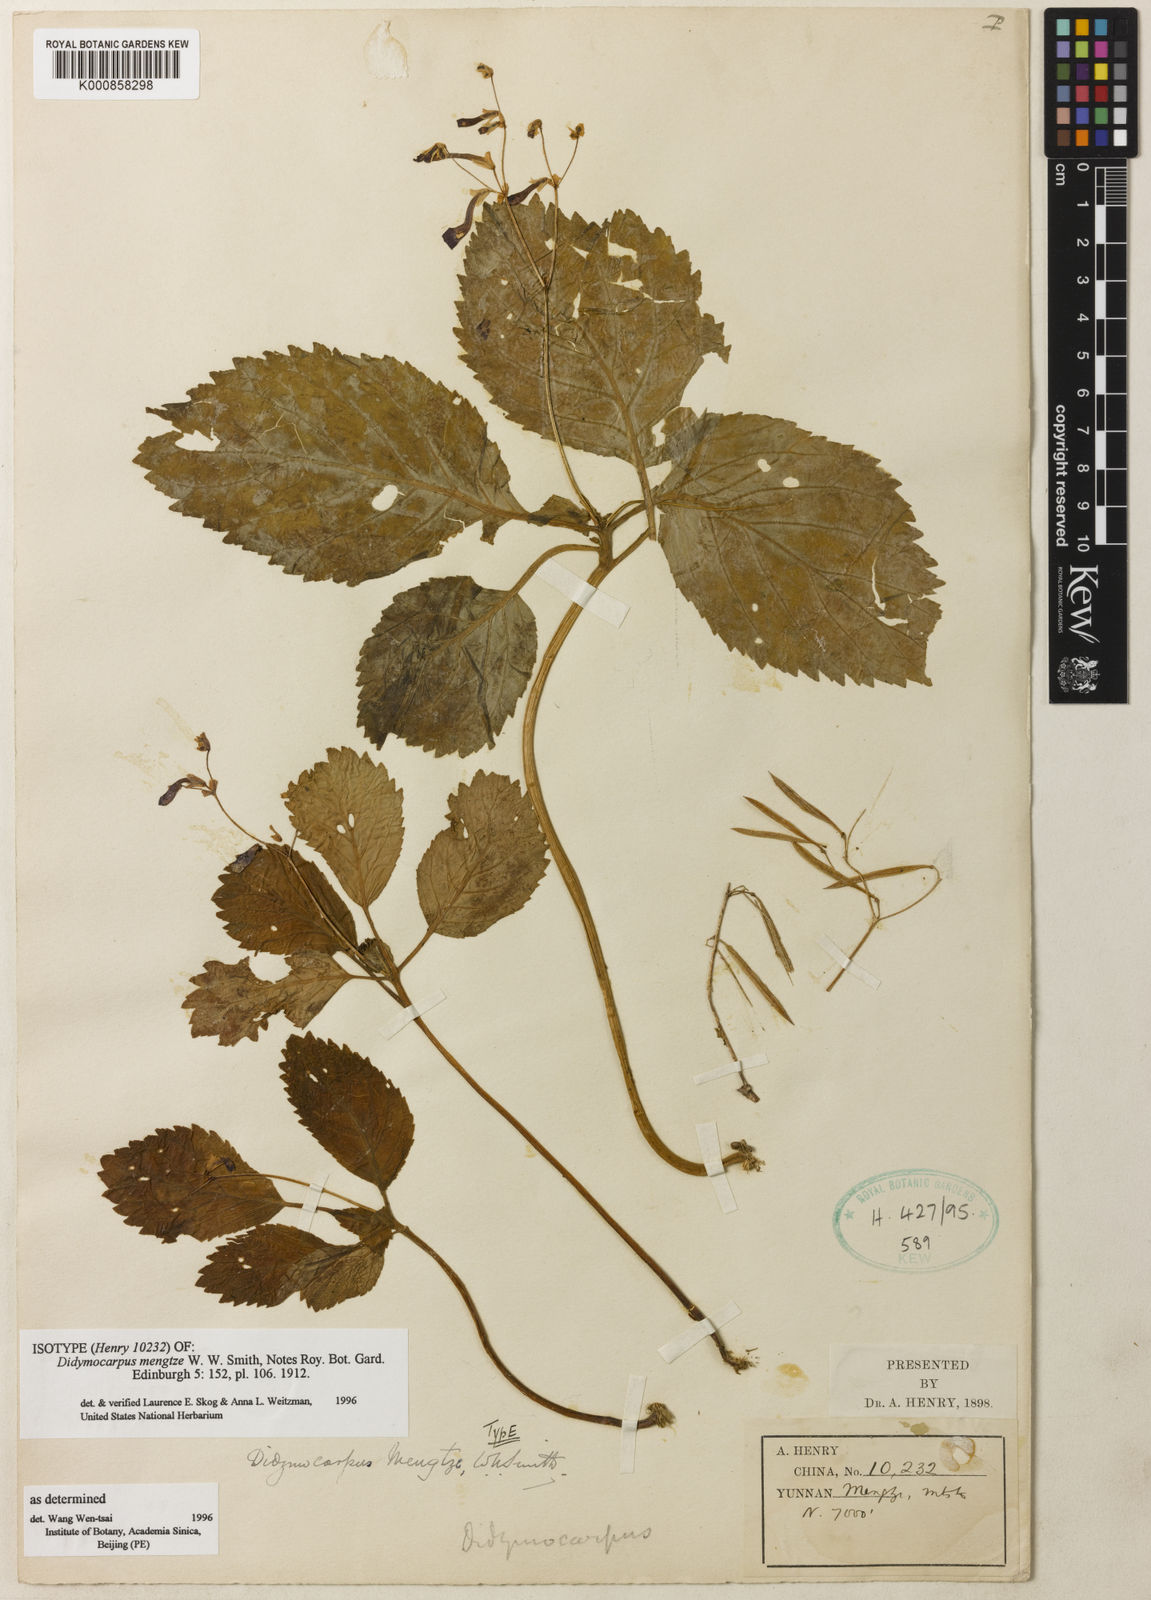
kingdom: Plantae
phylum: Tracheophyta
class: Magnoliopsida
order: Lamiales
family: Gesneriaceae
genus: Didymocarpus
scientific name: Didymocarpus mengtze
